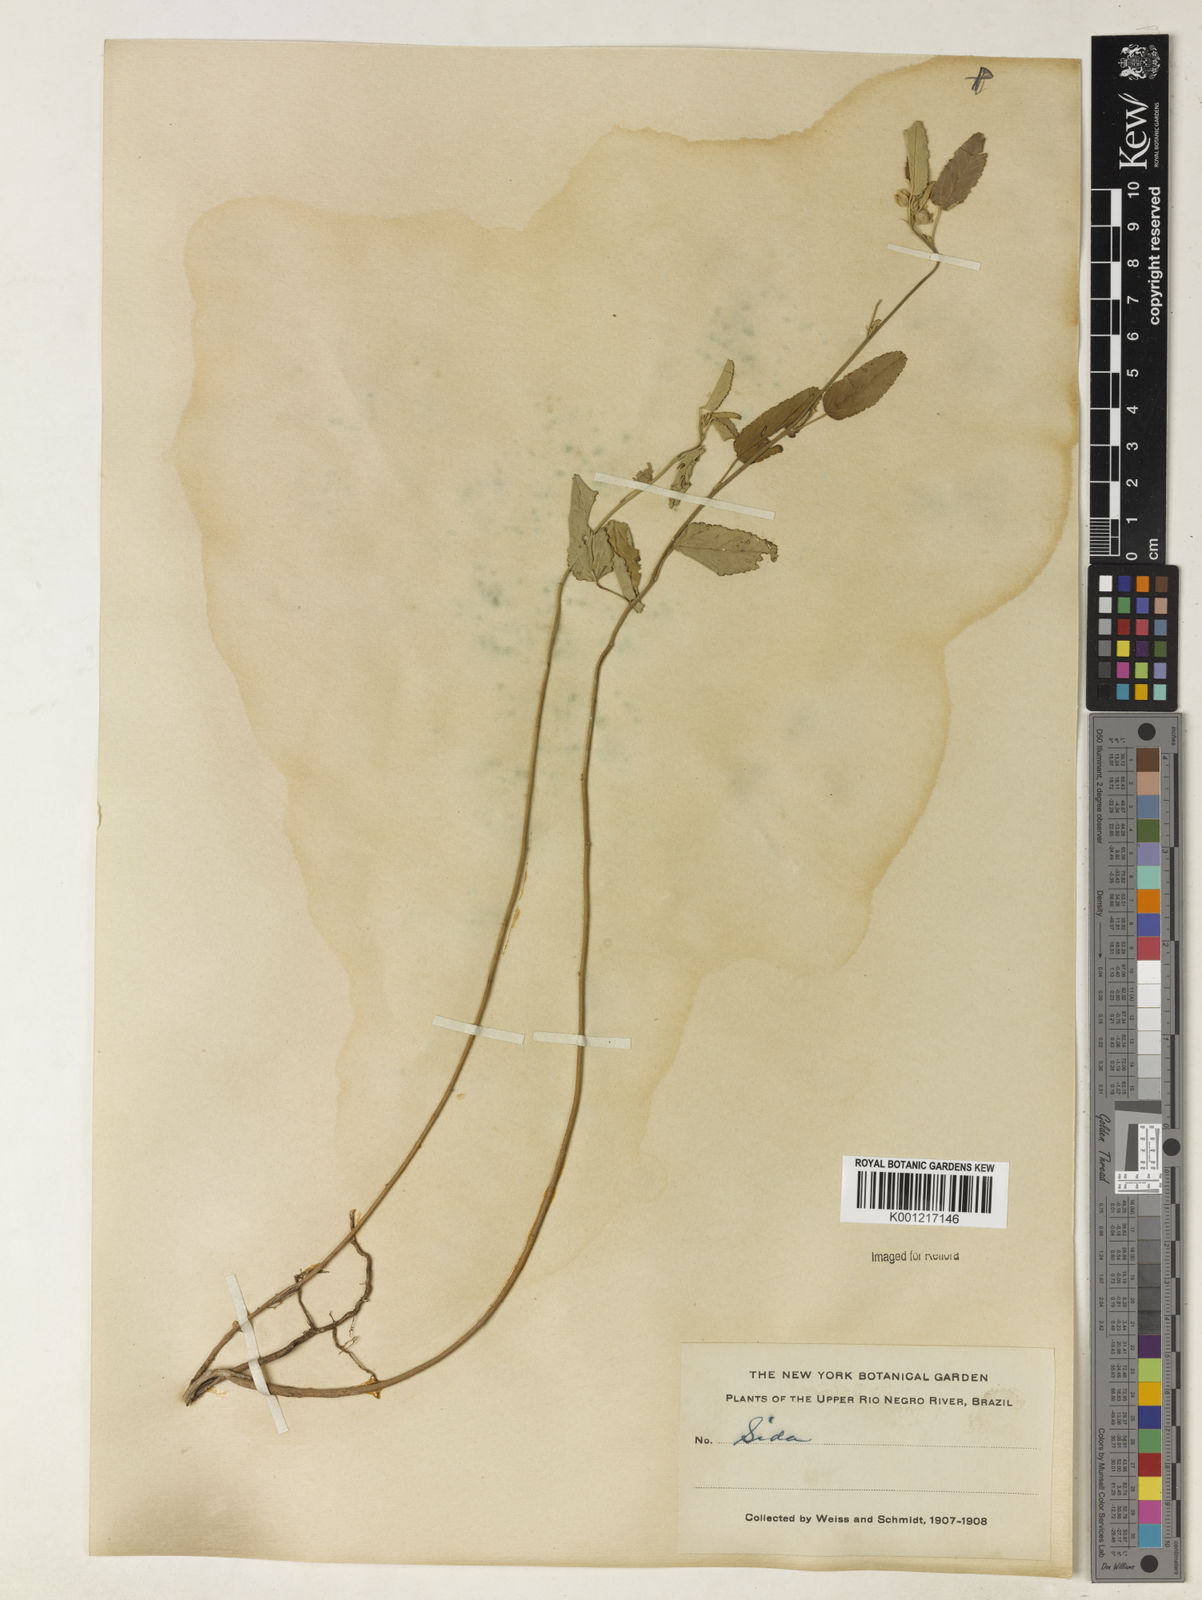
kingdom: Plantae
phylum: Tracheophyta
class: Magnoliopsida
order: Malvales
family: Malvaceae
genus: Sida
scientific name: Sida
